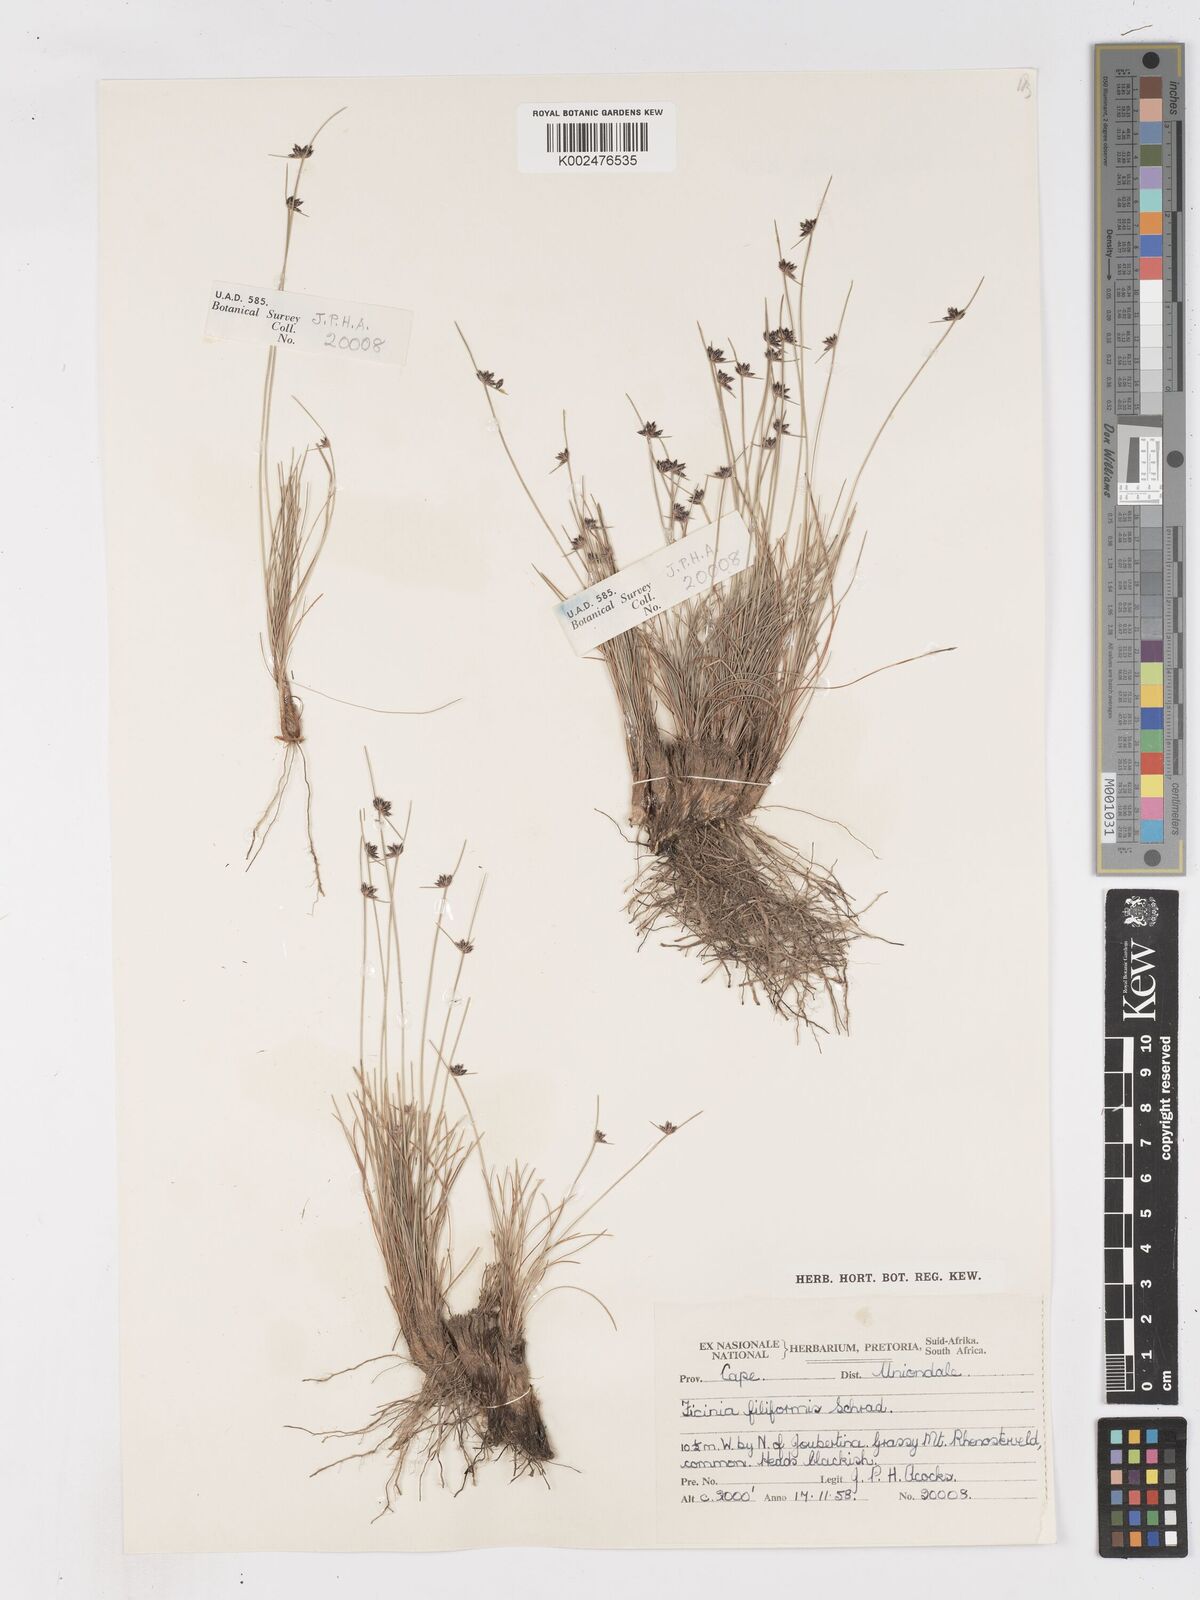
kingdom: Plantae
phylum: Tracheophyta
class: Liliopsida
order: Poales
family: Cyperaceae
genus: Ficinia
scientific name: Ficinia
